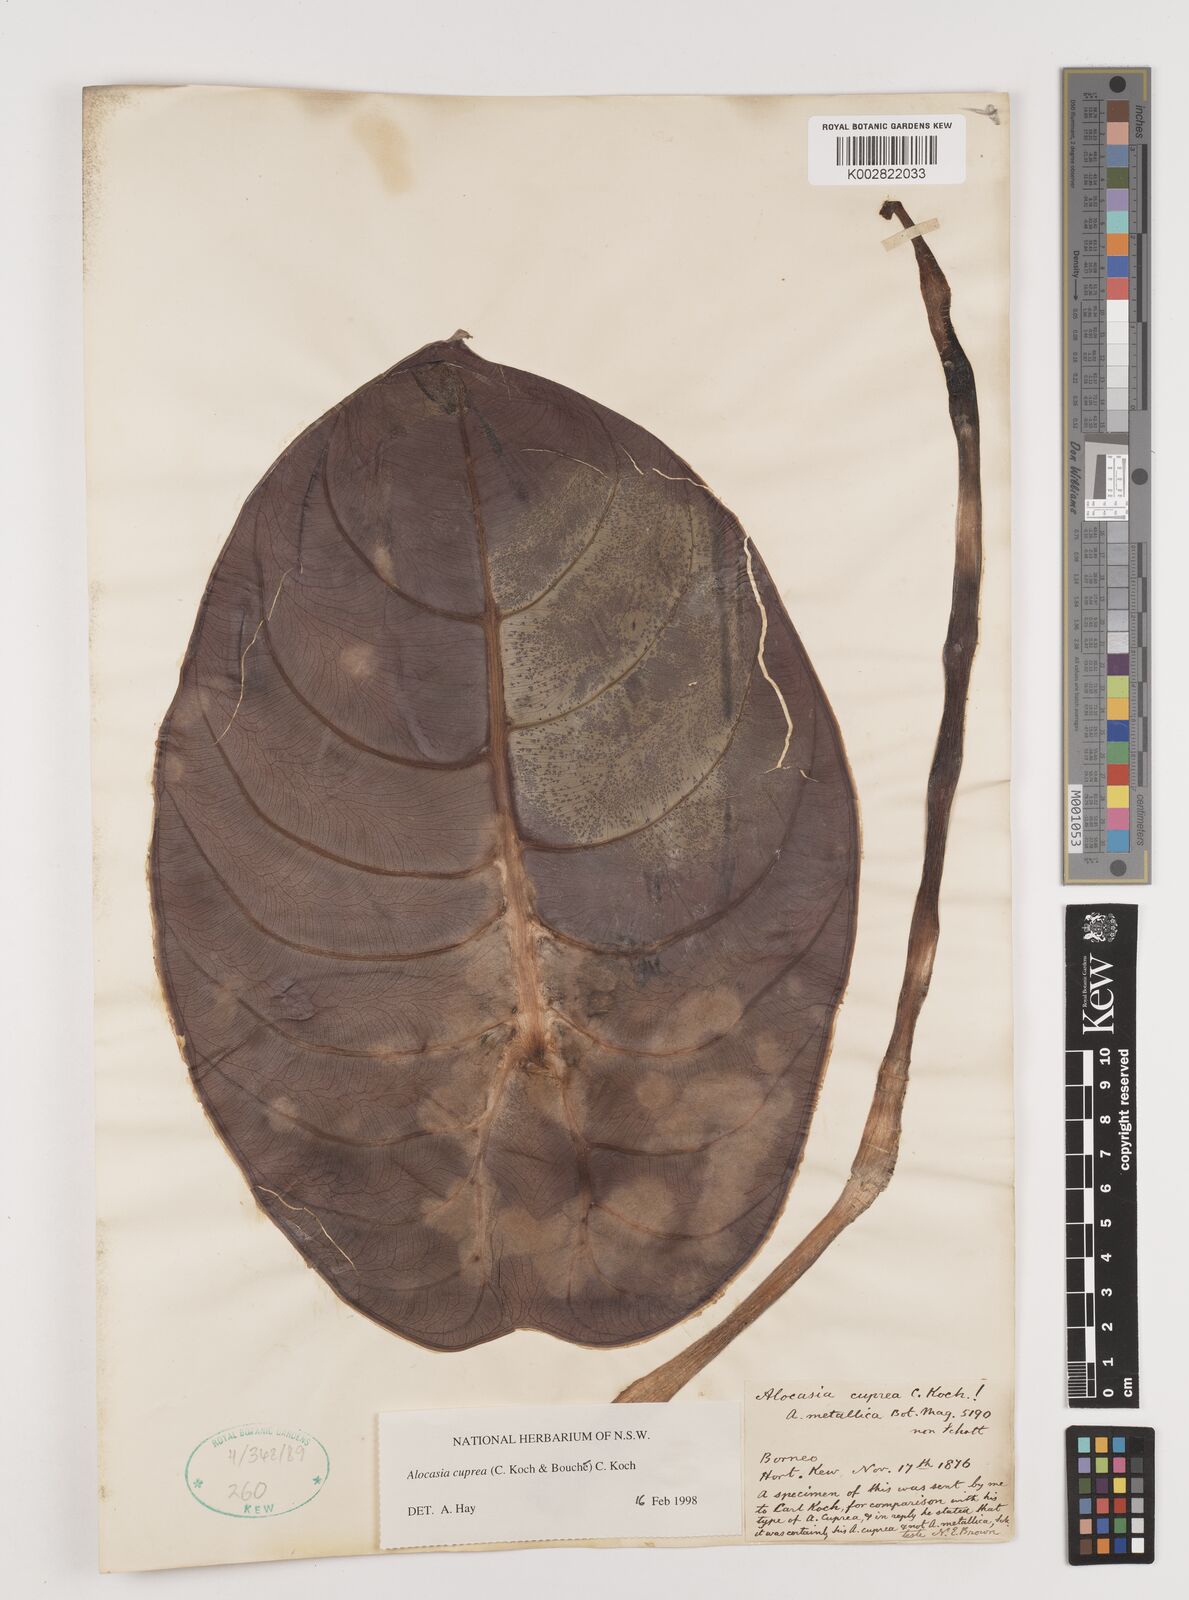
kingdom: Plantae
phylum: Tracheophyta
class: Liliopsida
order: Alismatales
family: Araceae
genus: Alocasia
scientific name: Alocasia
